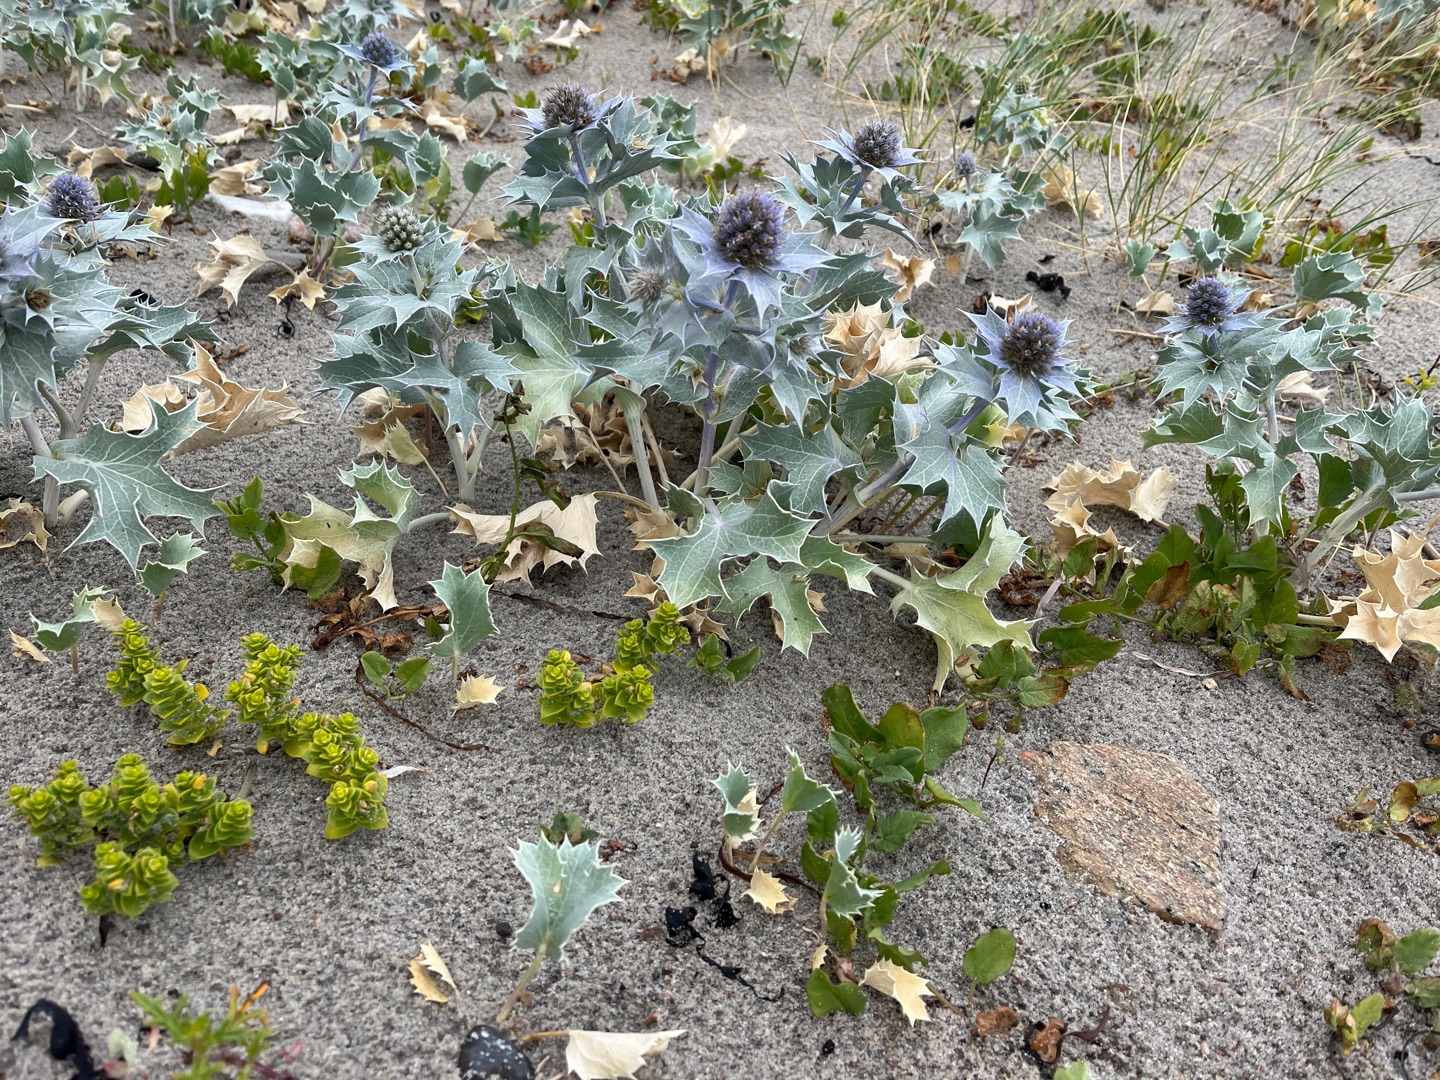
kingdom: Plantae
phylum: Tracheophyta
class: Magnoliopsida
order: Apiales
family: Apiaceae
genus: Eryngium
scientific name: Eryngium maritimum
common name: Strand-mandstro
